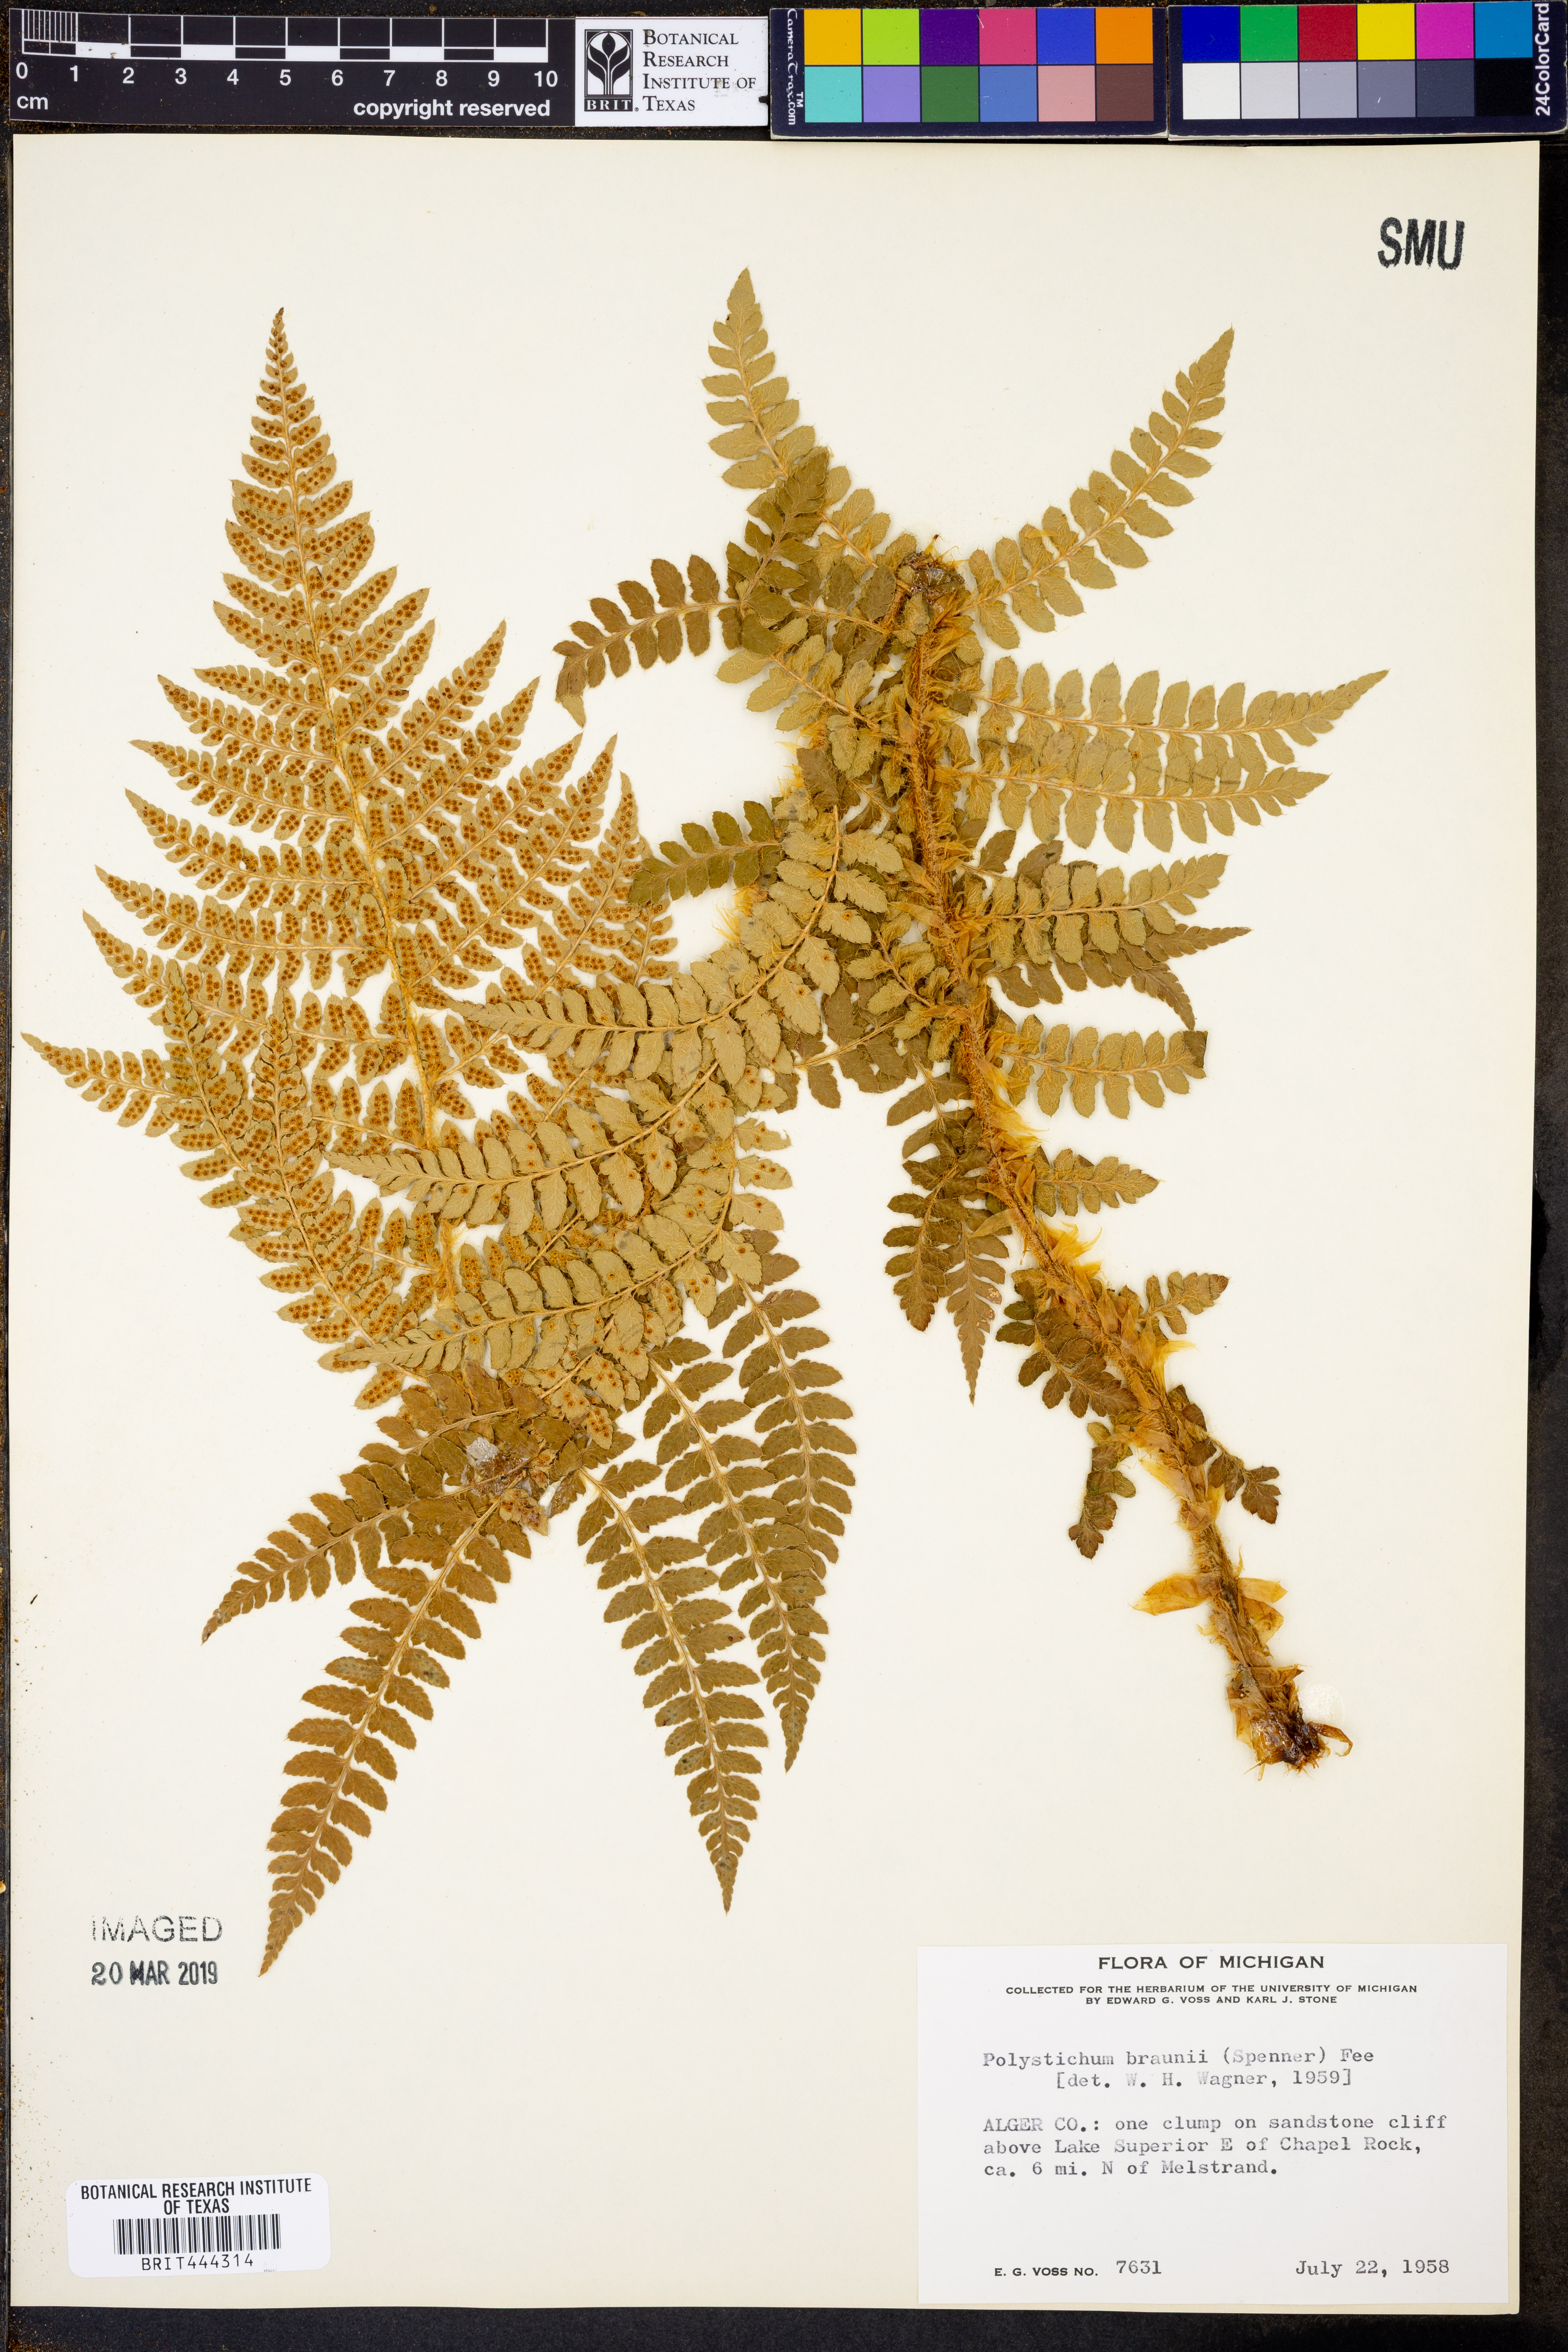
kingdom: Plantae
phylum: Tracheophyta
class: Polypodiopsida
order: Polypodiales
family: Dryopteridaceae
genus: Polystichum
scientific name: Polystichum braunii
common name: Braun's holly fern
